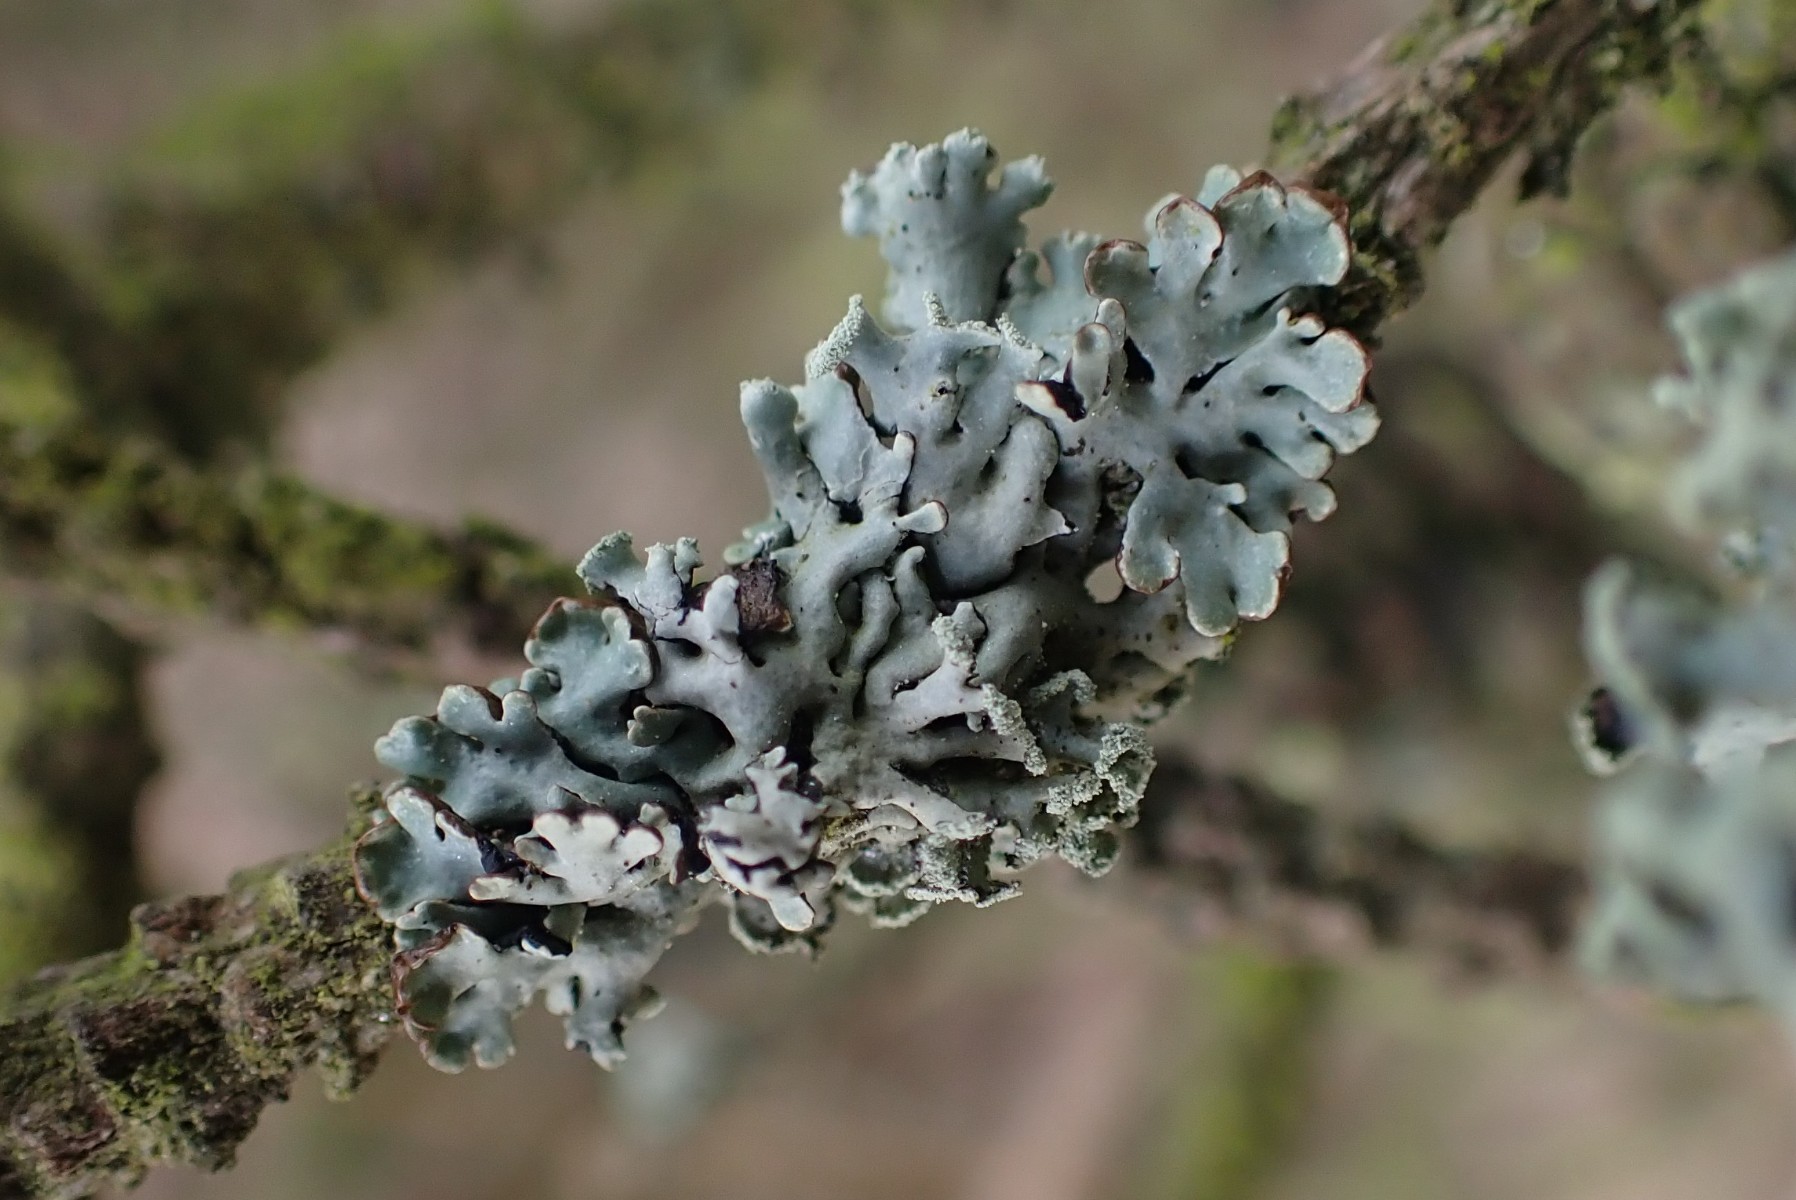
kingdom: Fungi
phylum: Ascomycota
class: Lecanoromycetes
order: Lecanorales
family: Parmeliaceae
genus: Hypogymnia
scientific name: Hypogymnia physodes
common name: almindelig kvistlav
